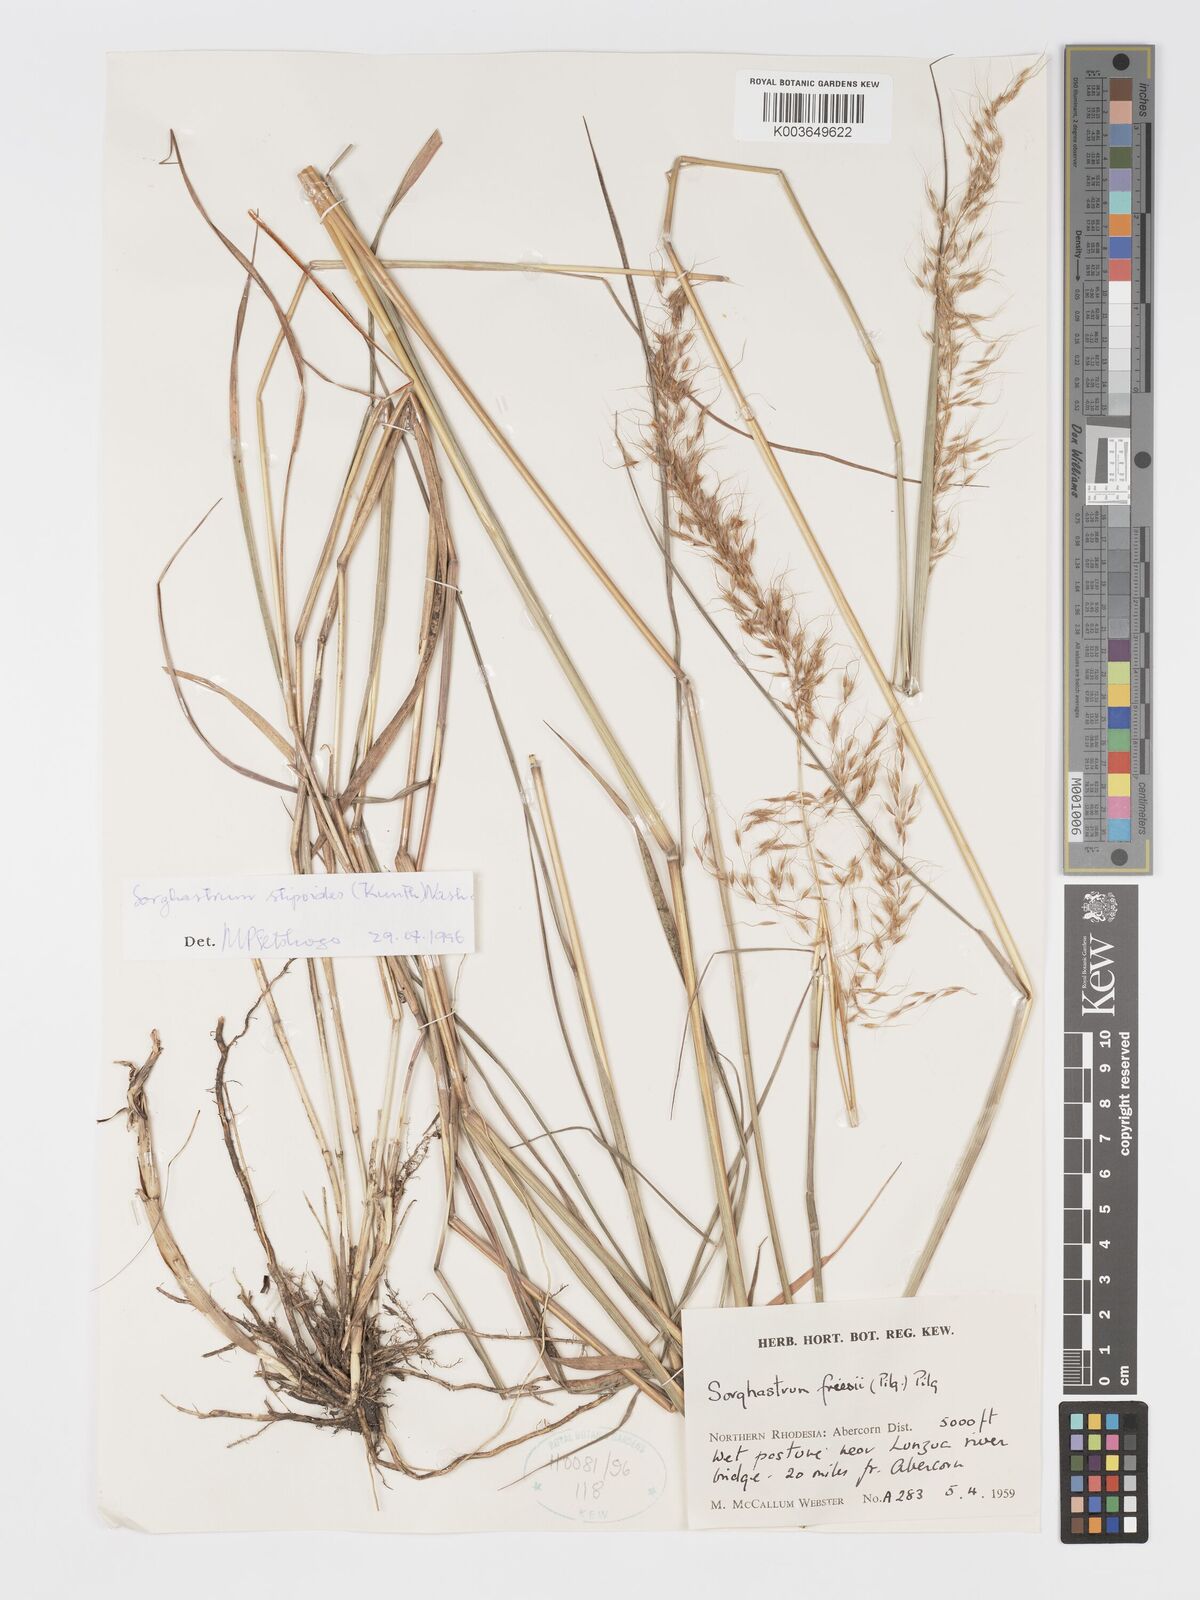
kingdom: Plantae
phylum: Tracheophyta
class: Liliopsida
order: Poales
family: Poaceae
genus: Sorghastrum
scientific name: Sorghastrum stipoides
